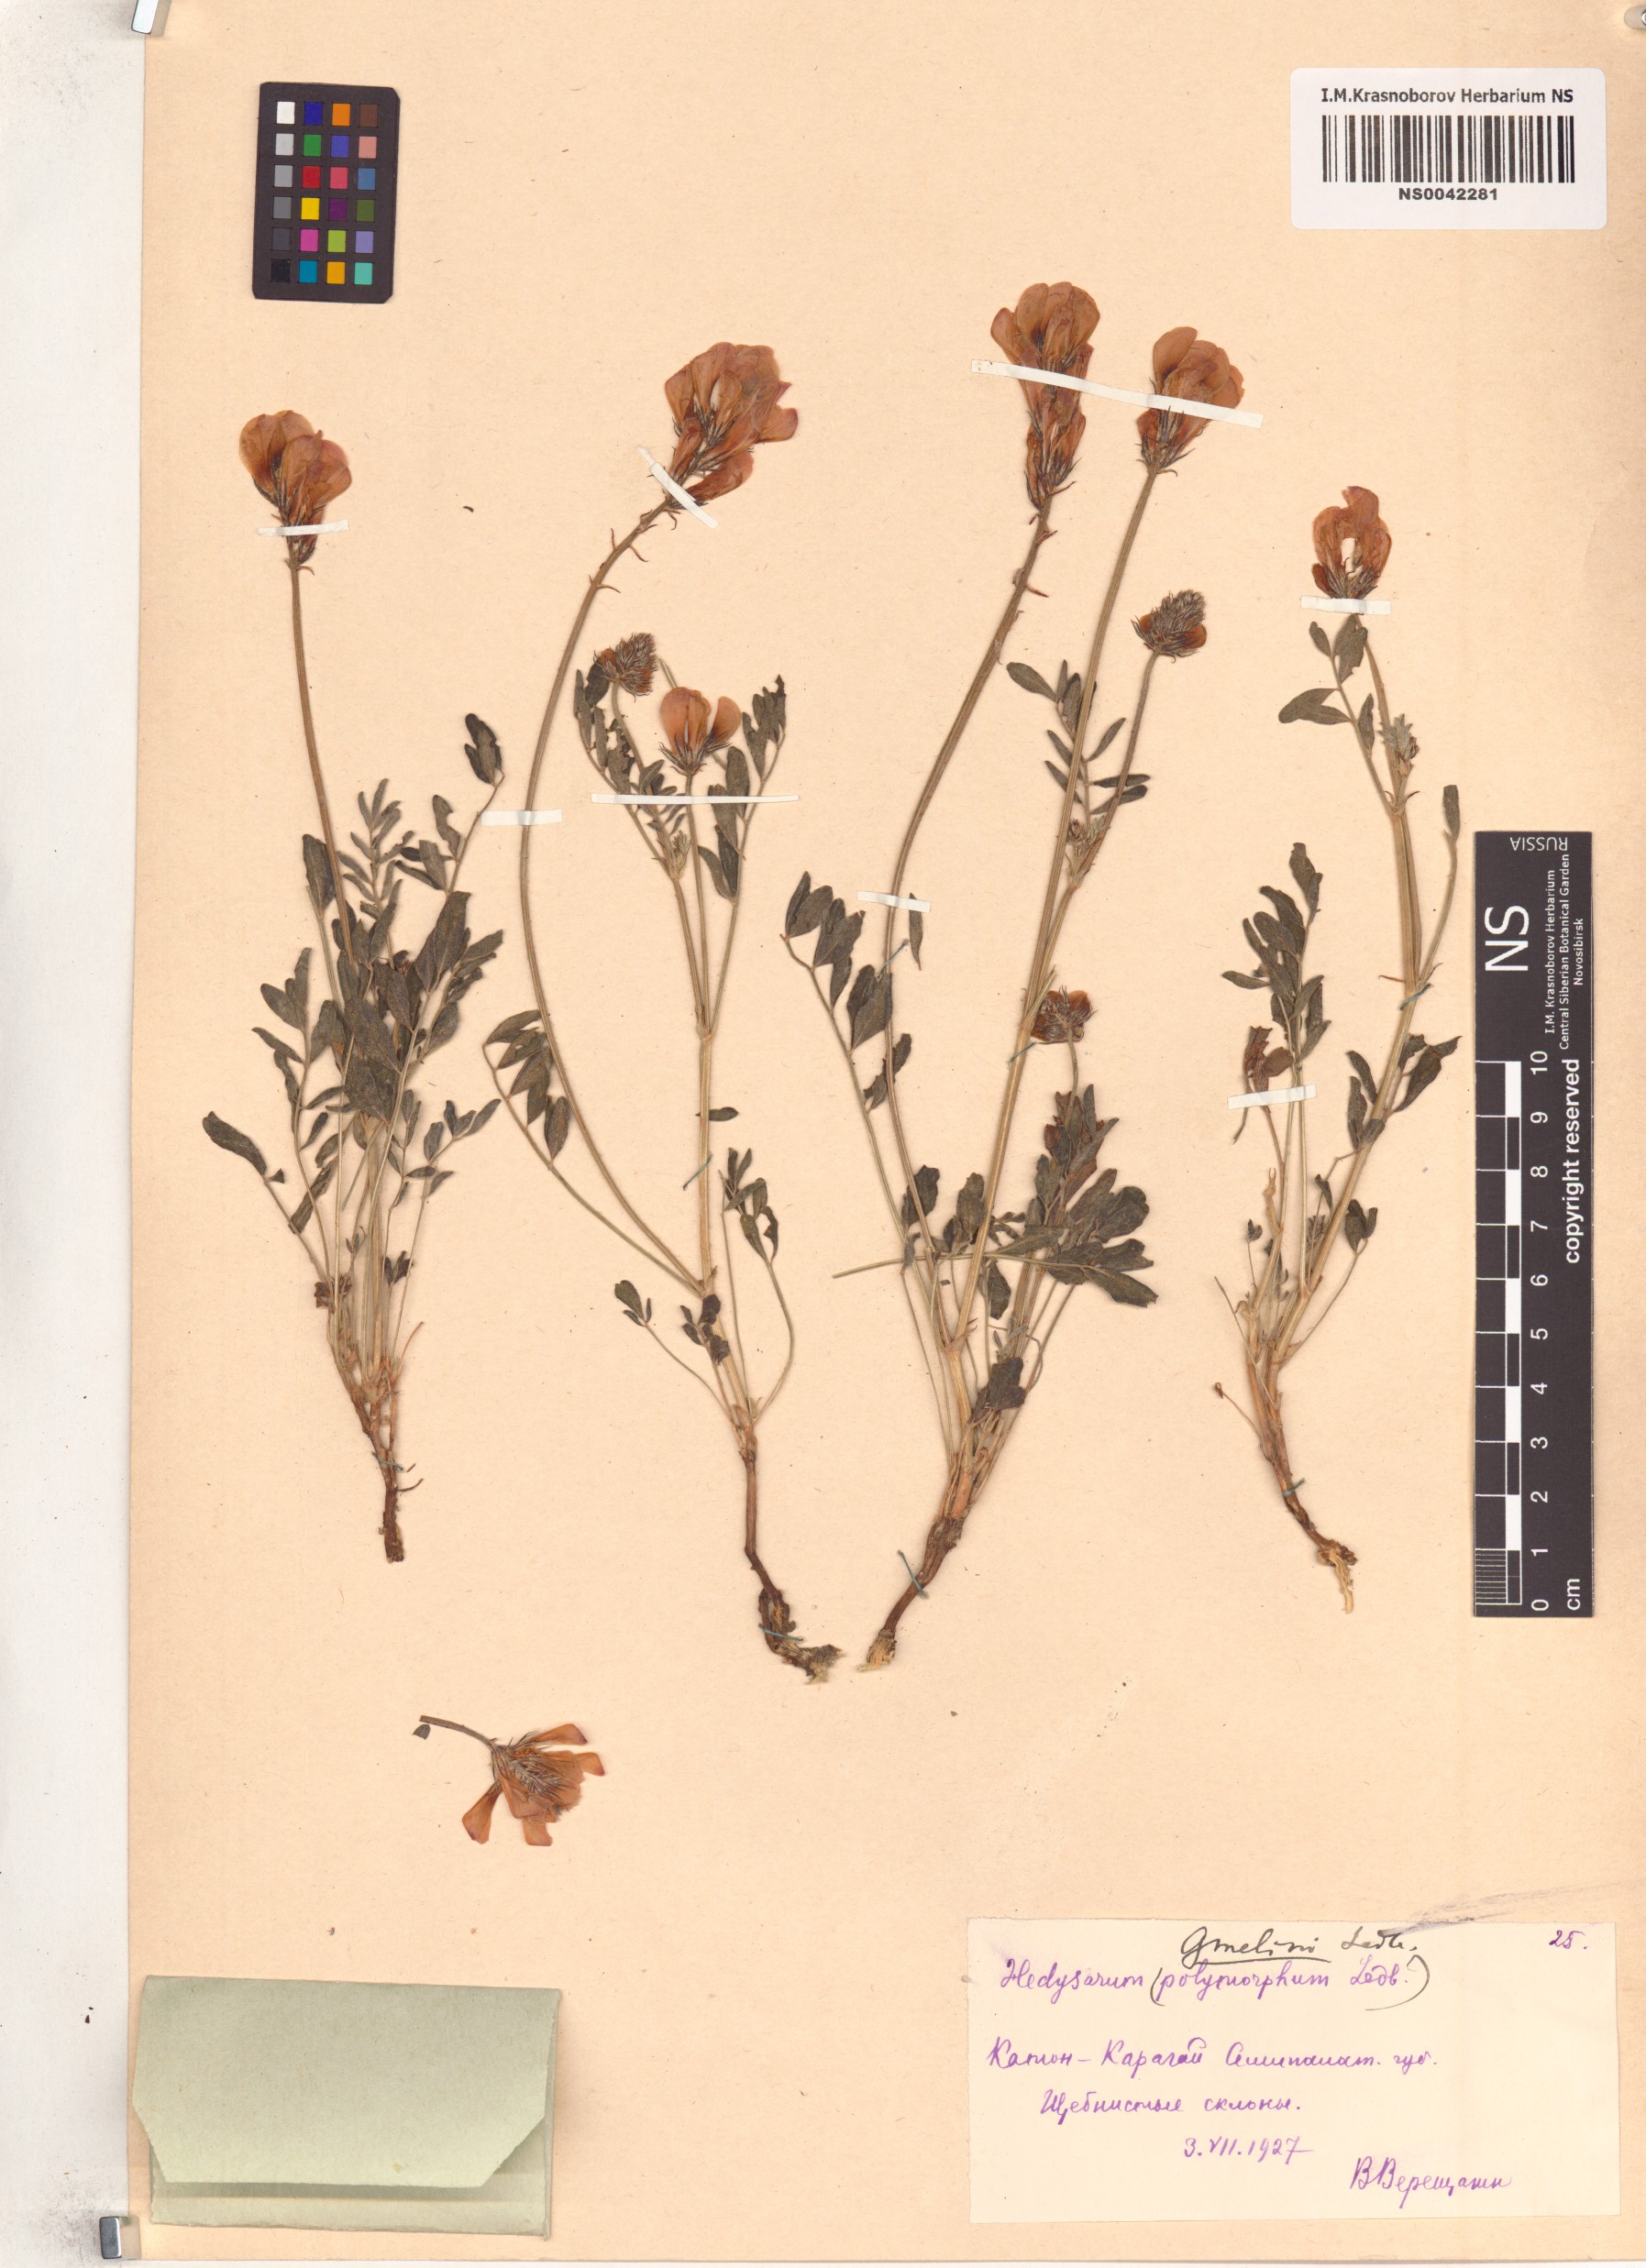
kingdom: Plantae
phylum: Tracheophyta
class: Magnoliopsida
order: Fabales
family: Fabaceae
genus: Hedysarum
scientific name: Hedysarum gmelinii
